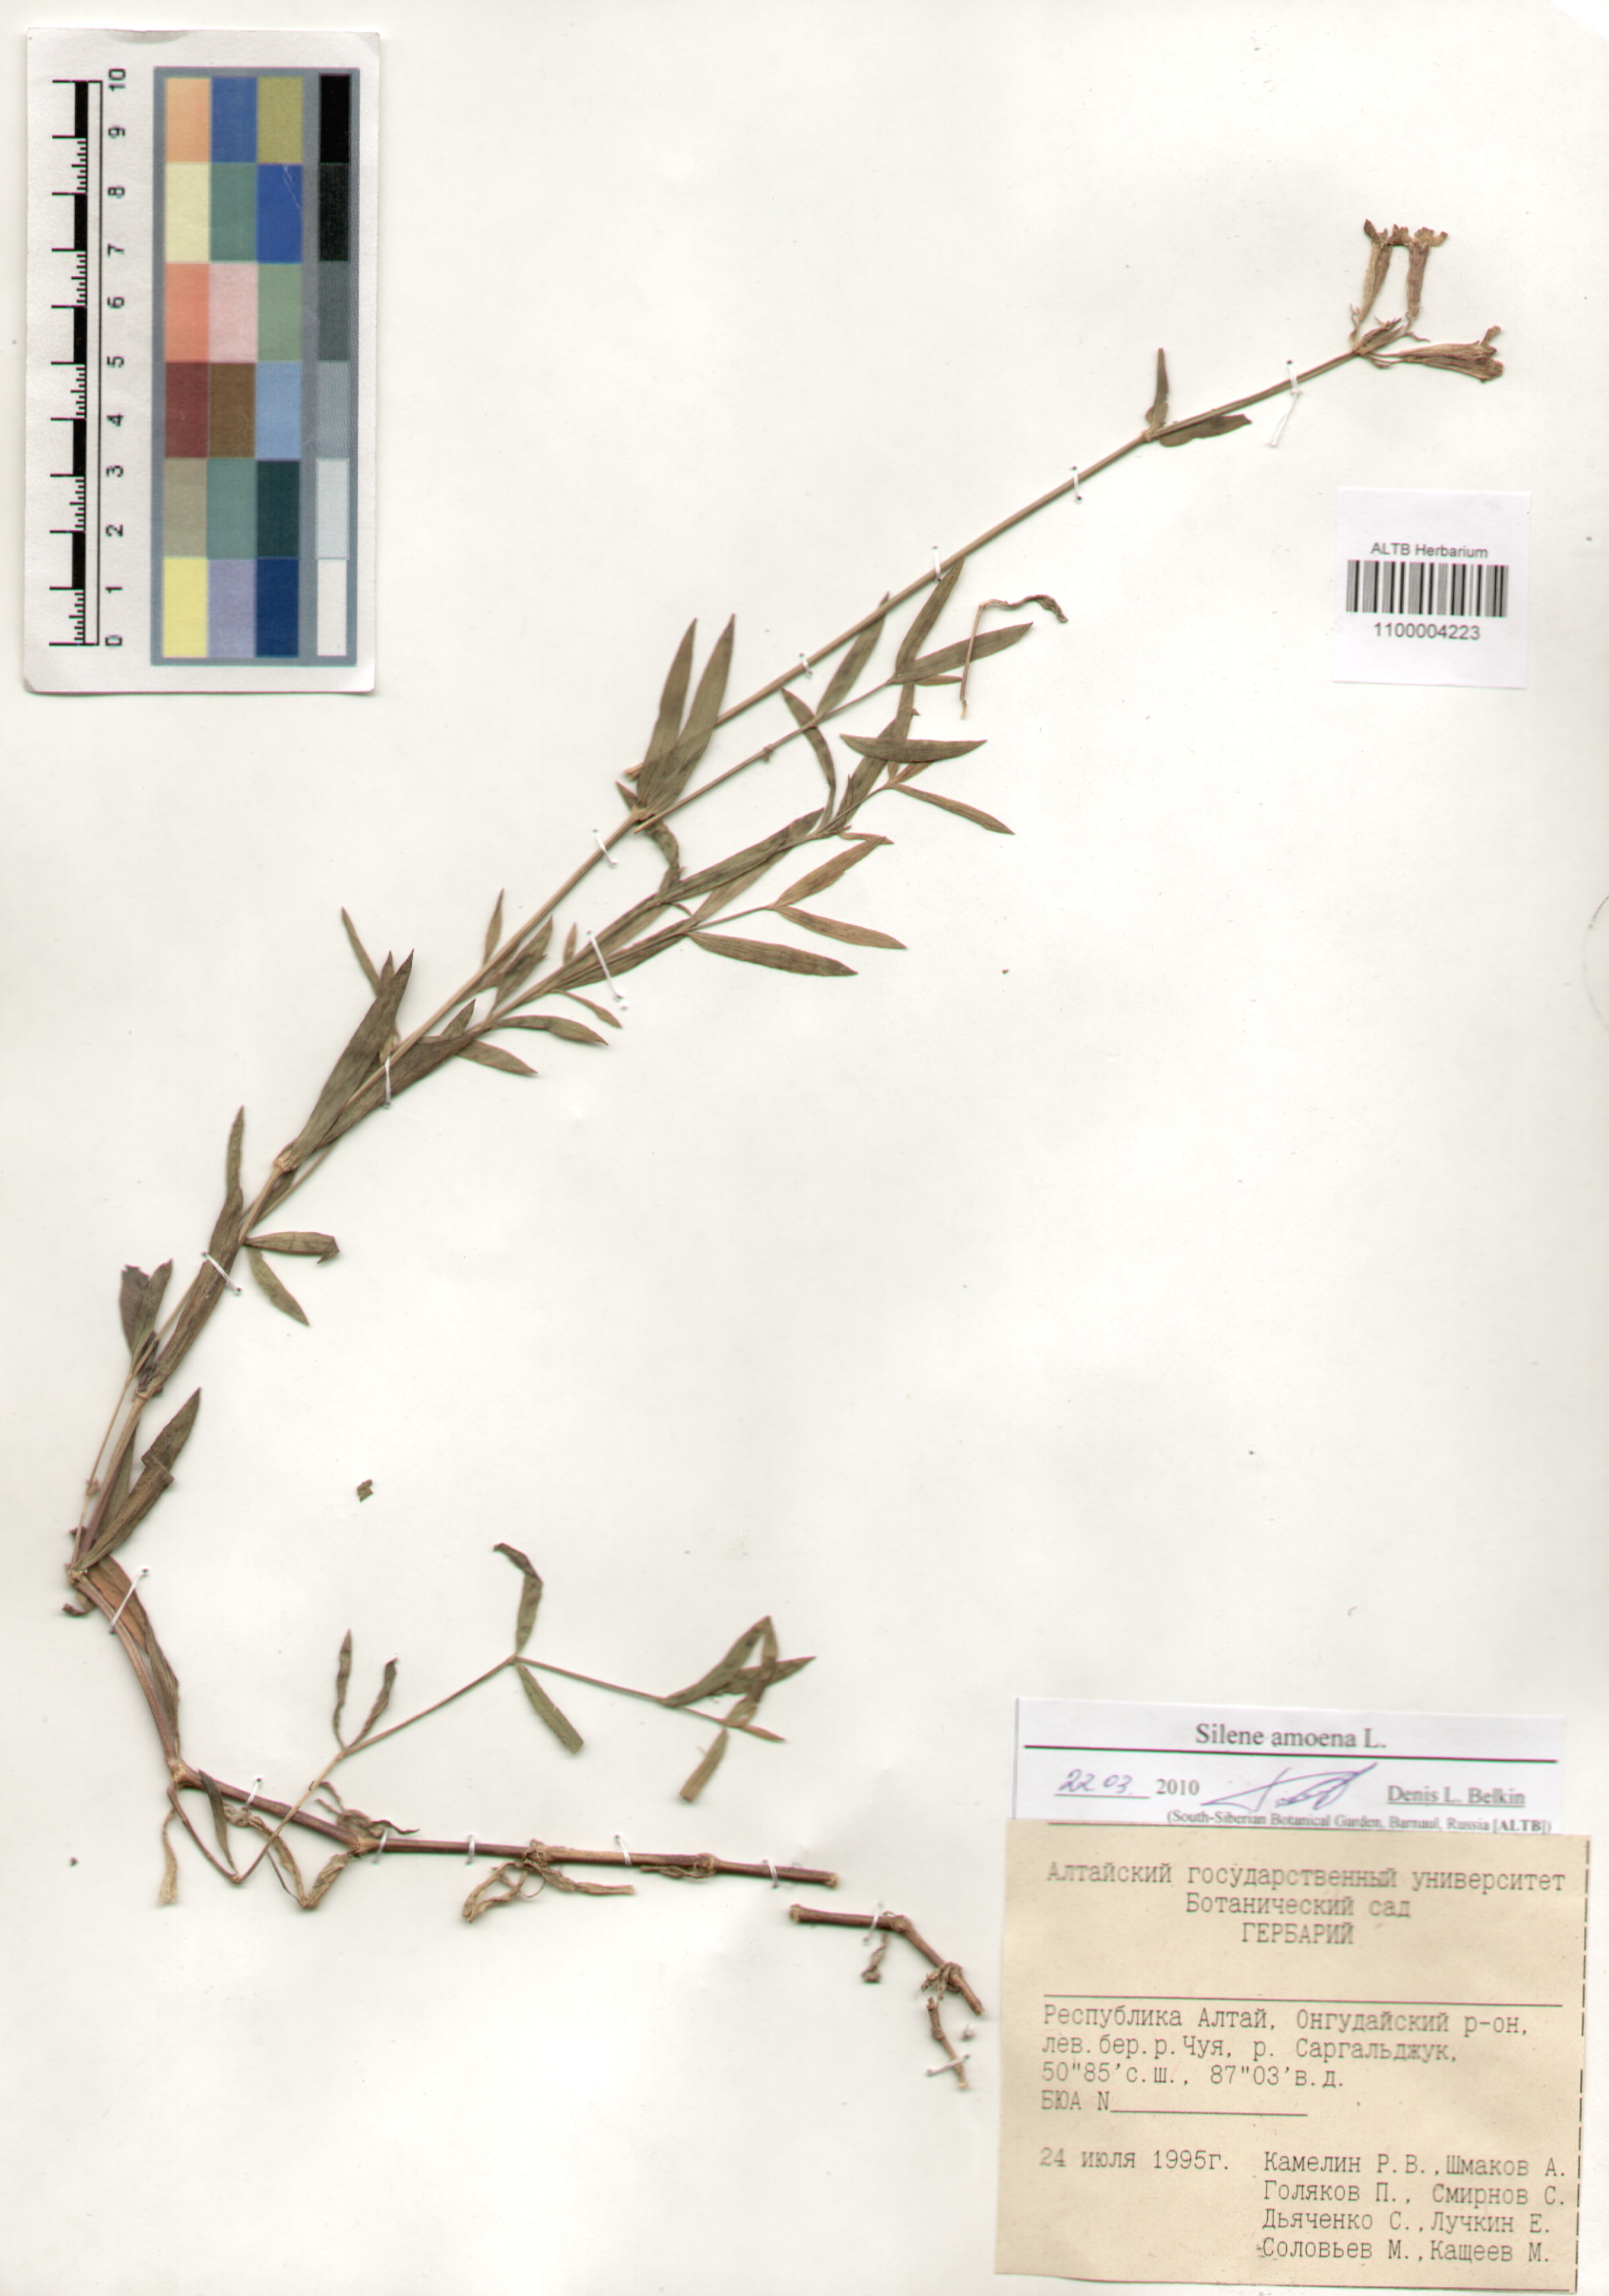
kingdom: Plantae
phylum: Tracheophyta
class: Magnoliopsida
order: Caryophyllales
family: Caryophyllaceae
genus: Silene
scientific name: Silene amoena
